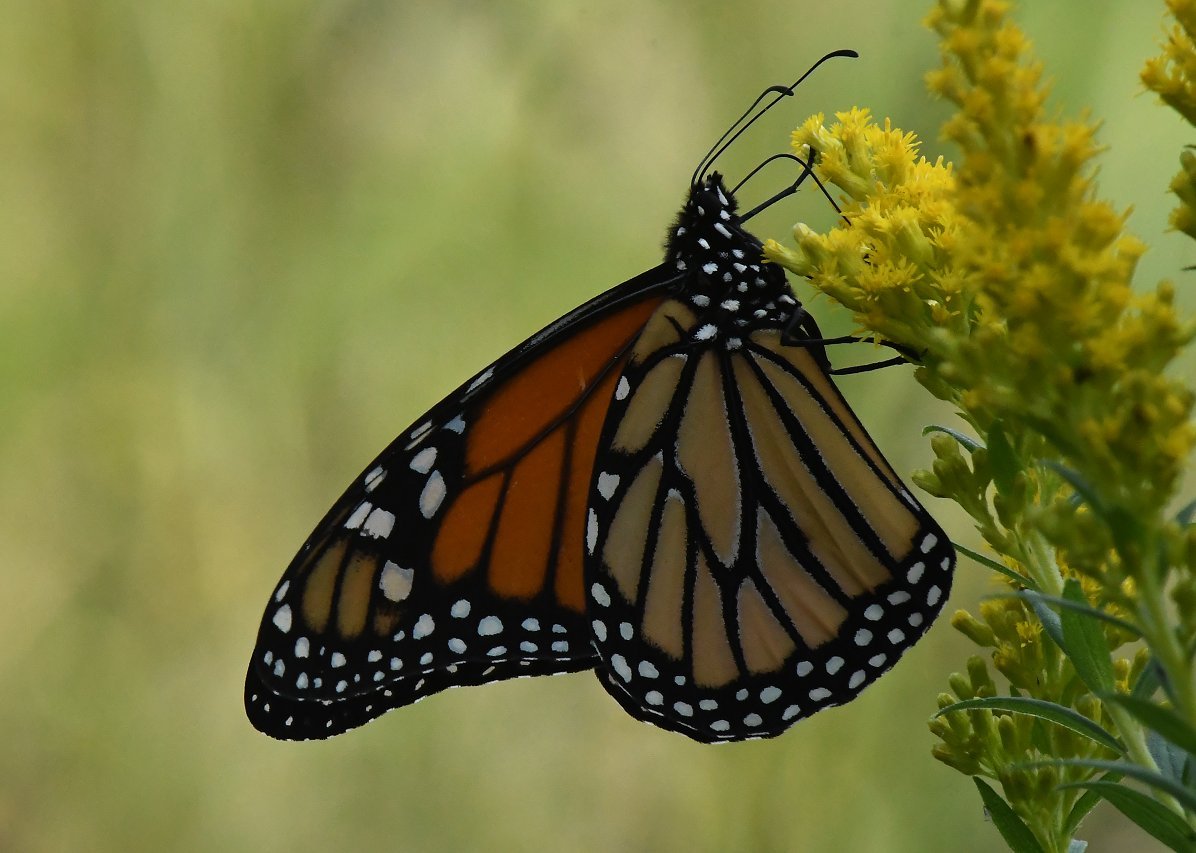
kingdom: Animalia
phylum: Arthropoda
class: Insecta
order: Lepidoptera
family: Nymphalidae
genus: Danaus
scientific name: Danaus plexippus
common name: Monarch
